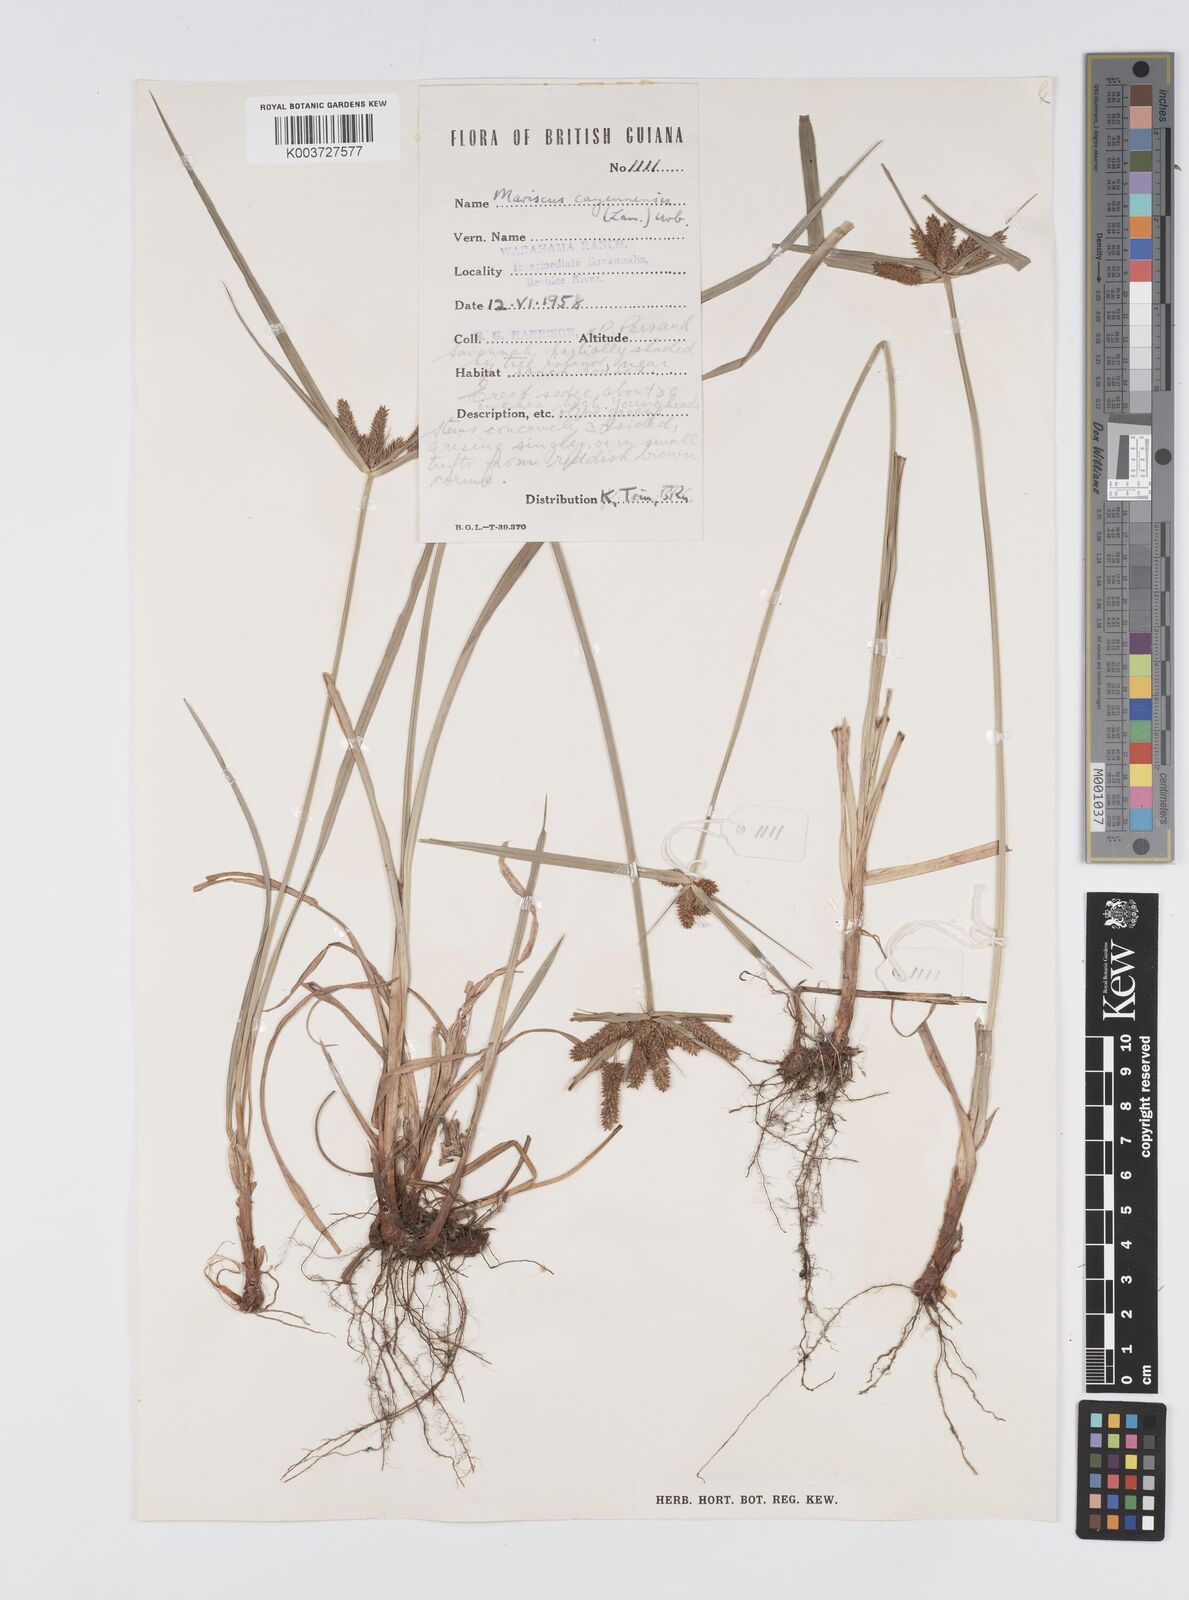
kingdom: Plantae
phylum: Tracheophyta
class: Liliopsida
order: Poales
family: Cyperaceae
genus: Cyperus
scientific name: Cyperus aggregatus
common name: Inflatedscale flatsedge
